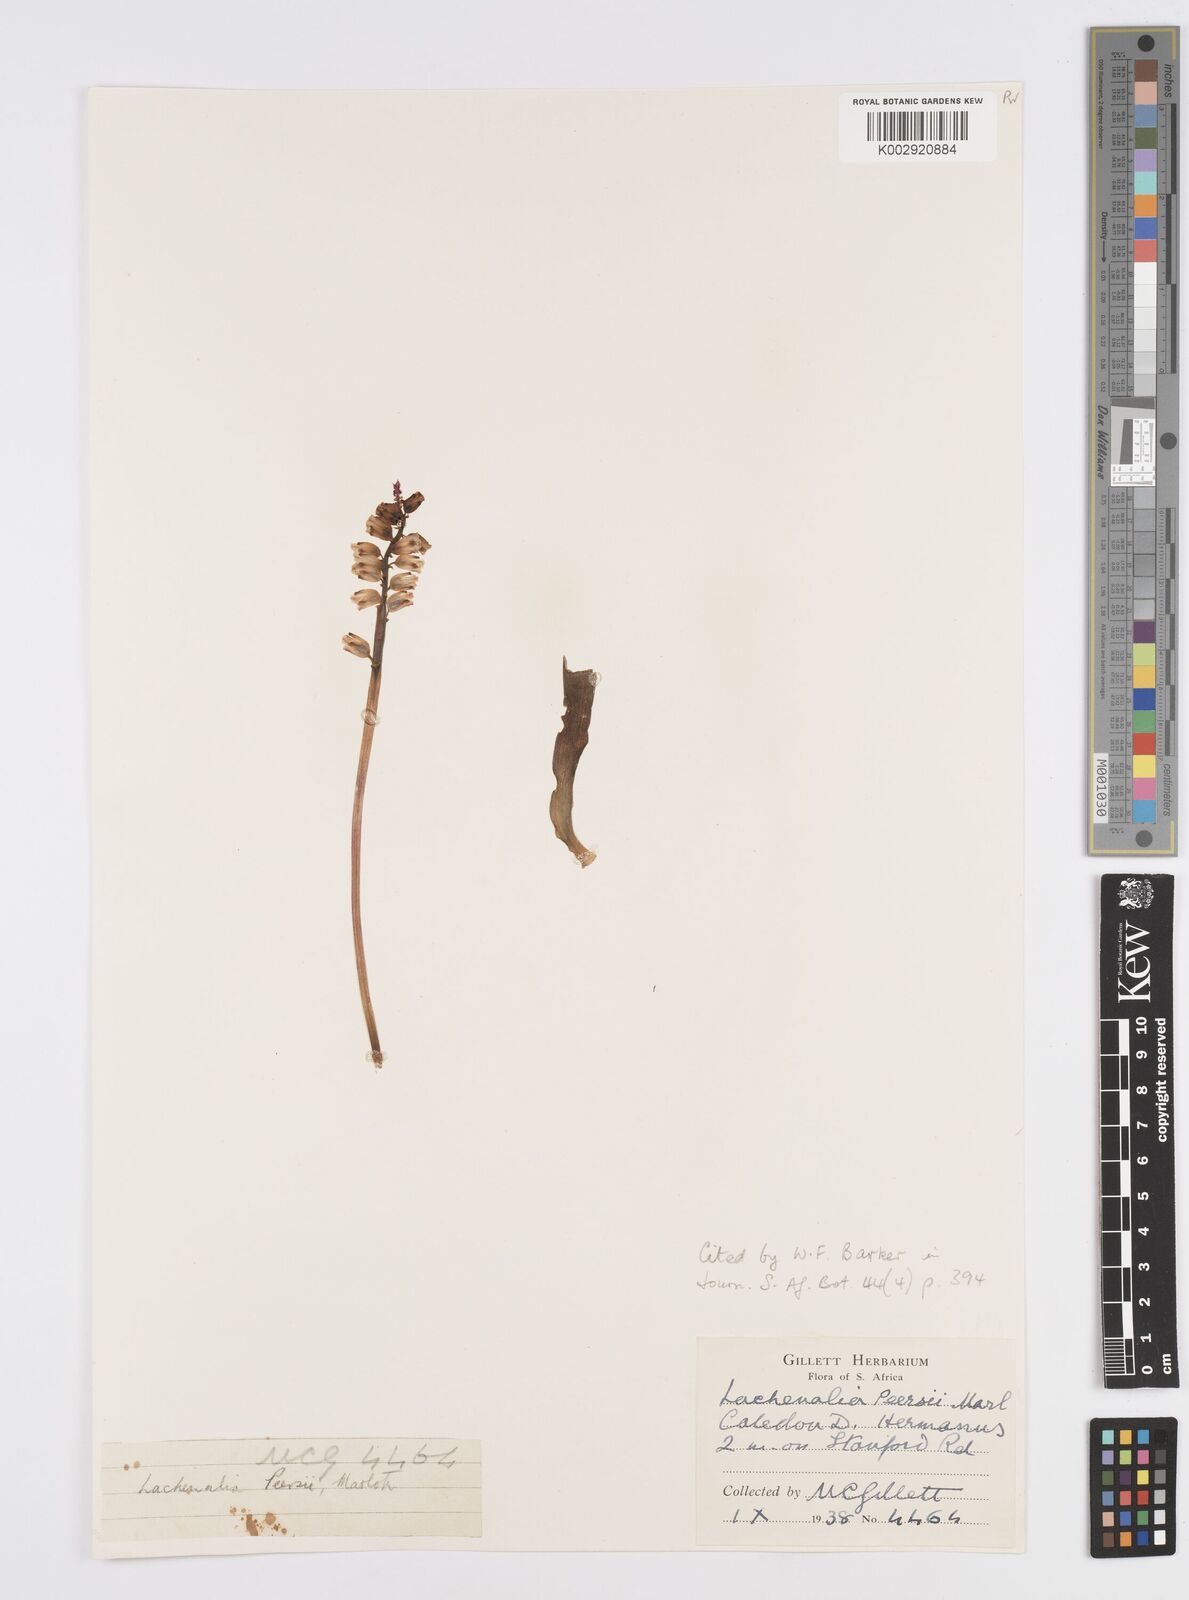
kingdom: Plantae
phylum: Tracheophyta
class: Liliopsida
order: Asparagales
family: Asparagaceae
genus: Lachenalia
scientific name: Lachenalia peersii
